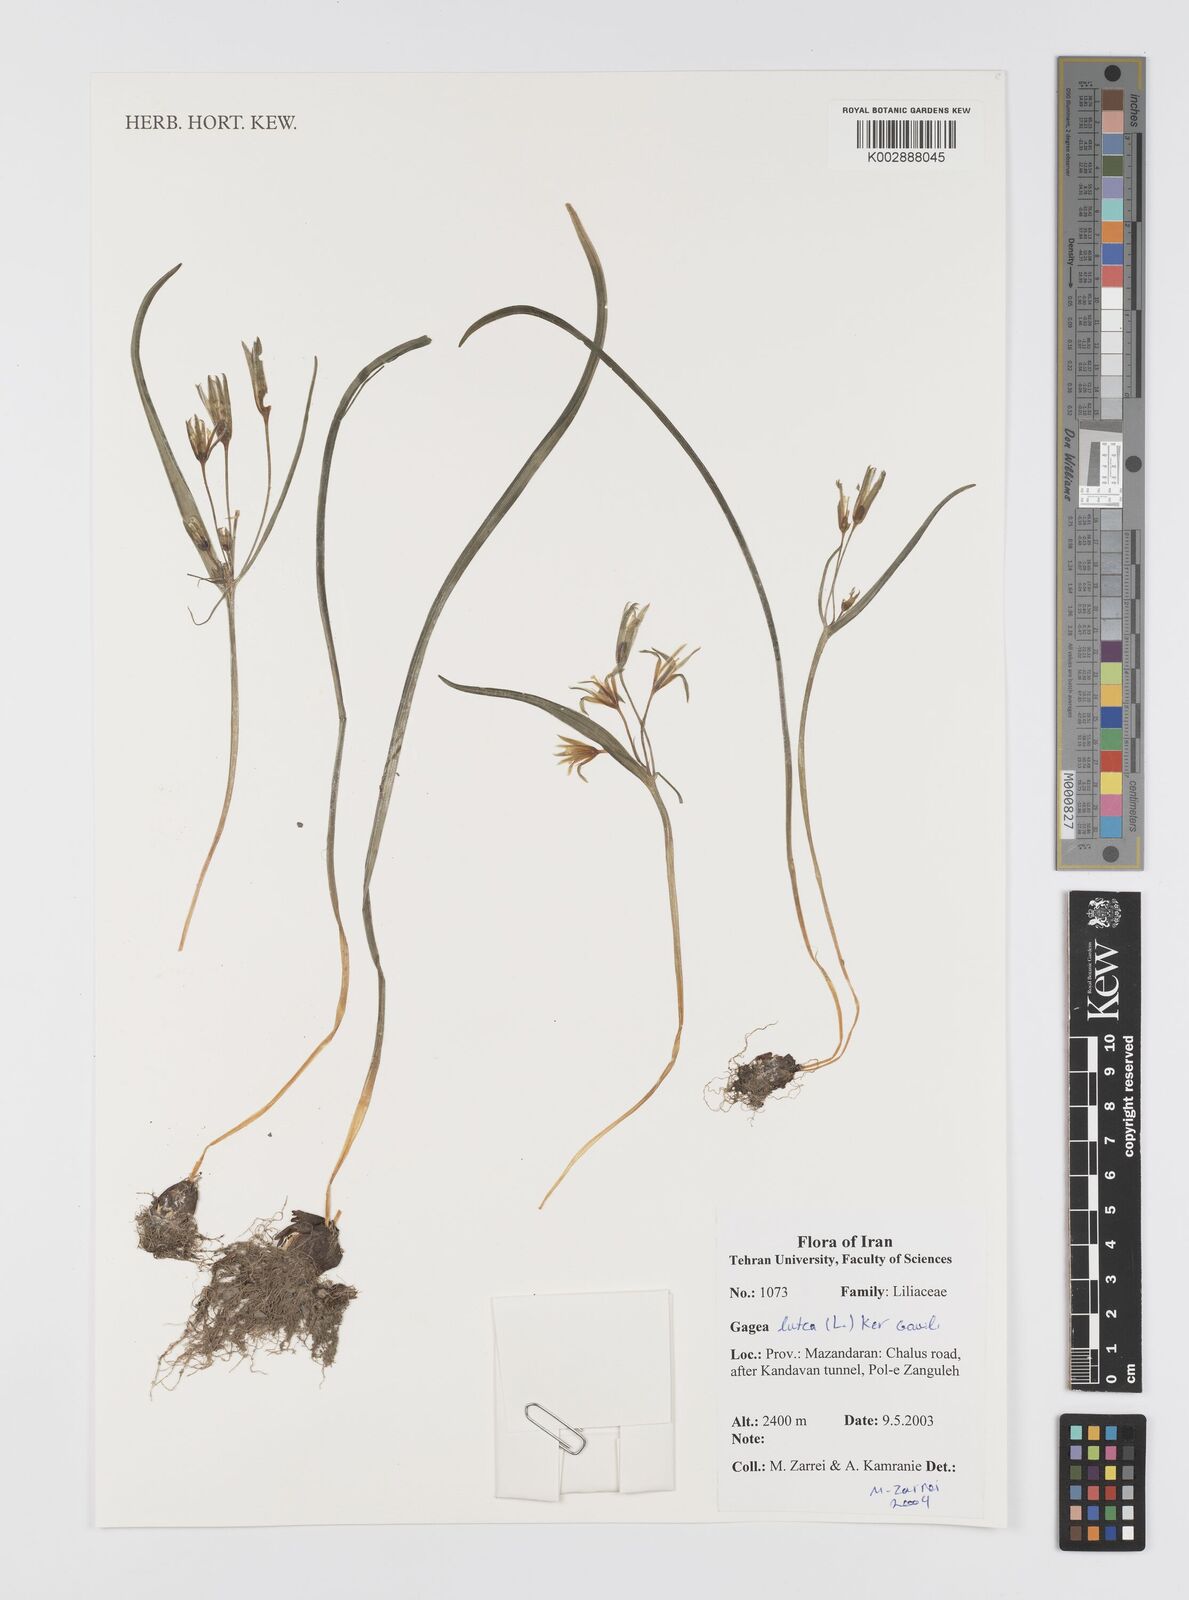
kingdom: Plantae
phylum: Tracheophyta
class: Liliopsida
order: Liliales
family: Liliaceae
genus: Gagea
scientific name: Gagea lutea
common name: Yellow star-of-bethlehem
